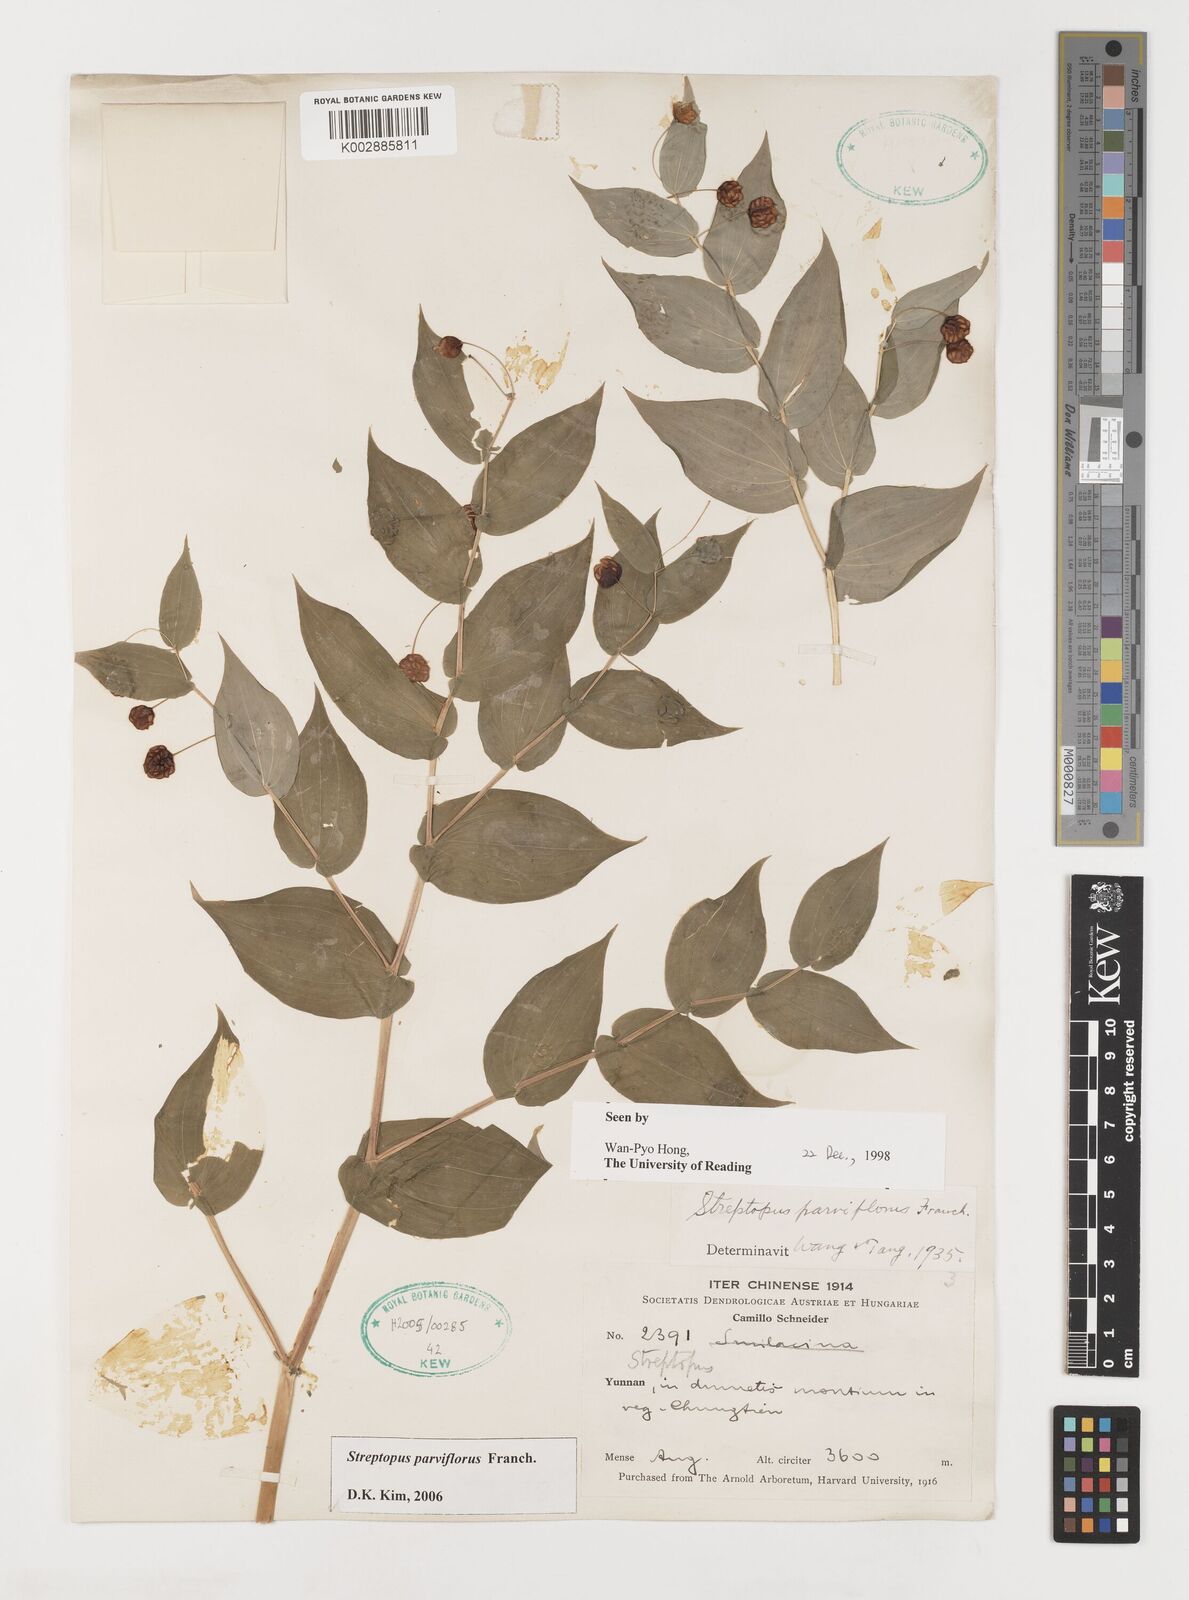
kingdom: Plantae
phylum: Tracheophyta
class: Liliopsida
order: Liliales
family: Liliaceae
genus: Streptopus
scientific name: Streptopus parviflorus
